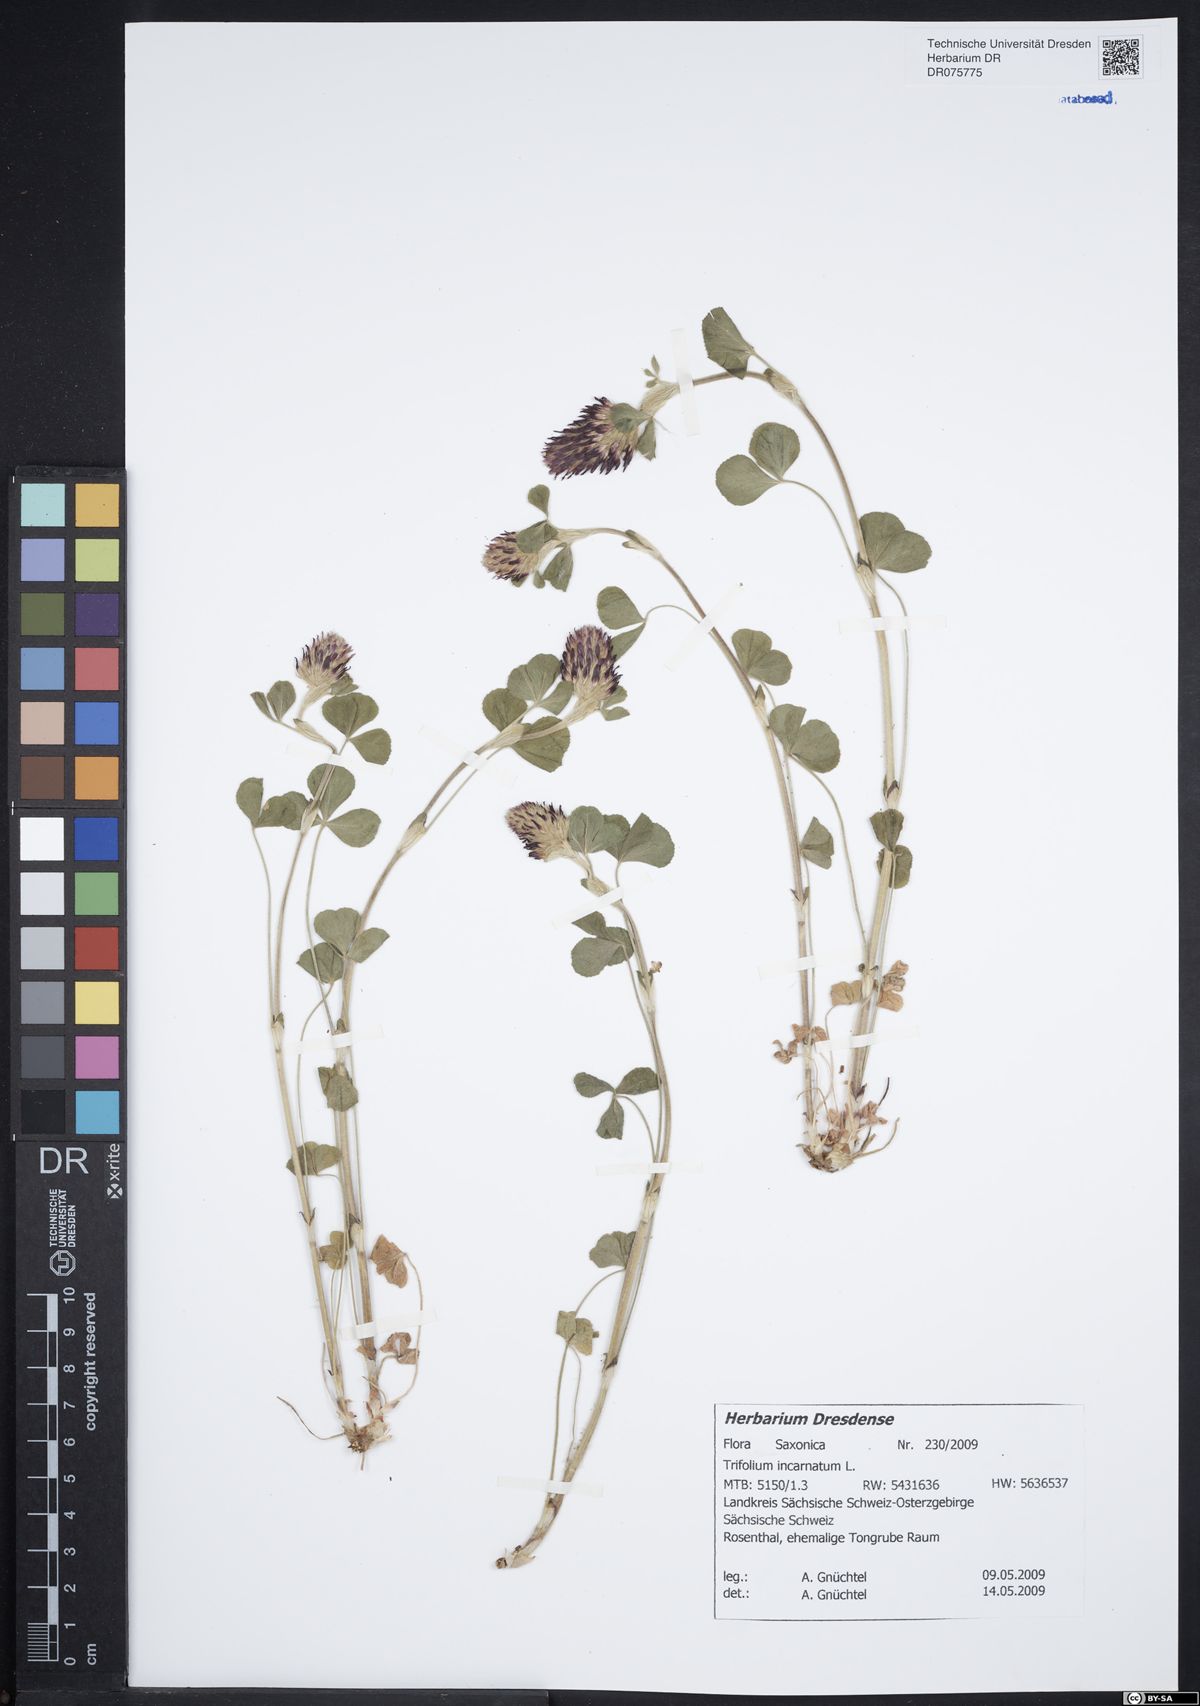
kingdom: Plantae
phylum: Tracheophyta
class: Magnoliopsida
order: Fabales
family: Fabaceae
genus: Trifolium
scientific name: Trifolium incarnatum
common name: Crimson clover
